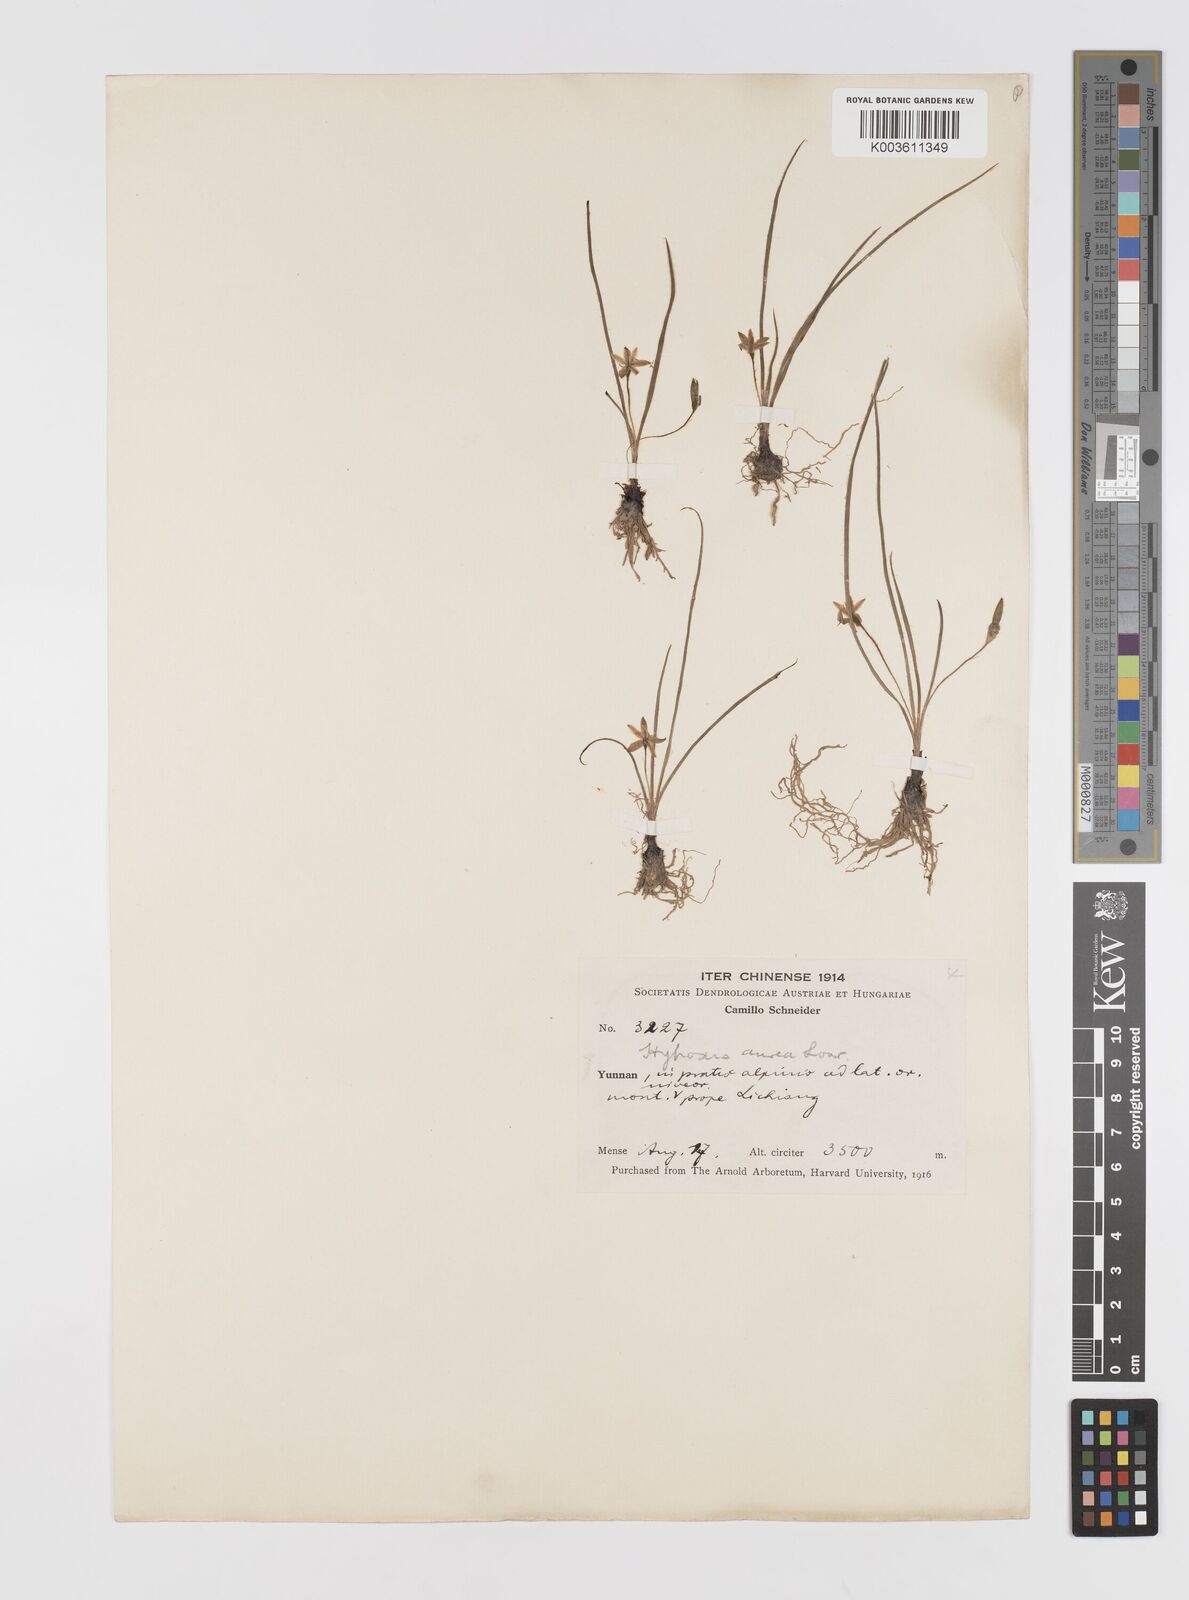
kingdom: Plantae
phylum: Tracheophyta
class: Liliopsida
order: Asparagales
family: Hypoxidaceae
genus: Hypoxis
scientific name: Hypoxis aurea
